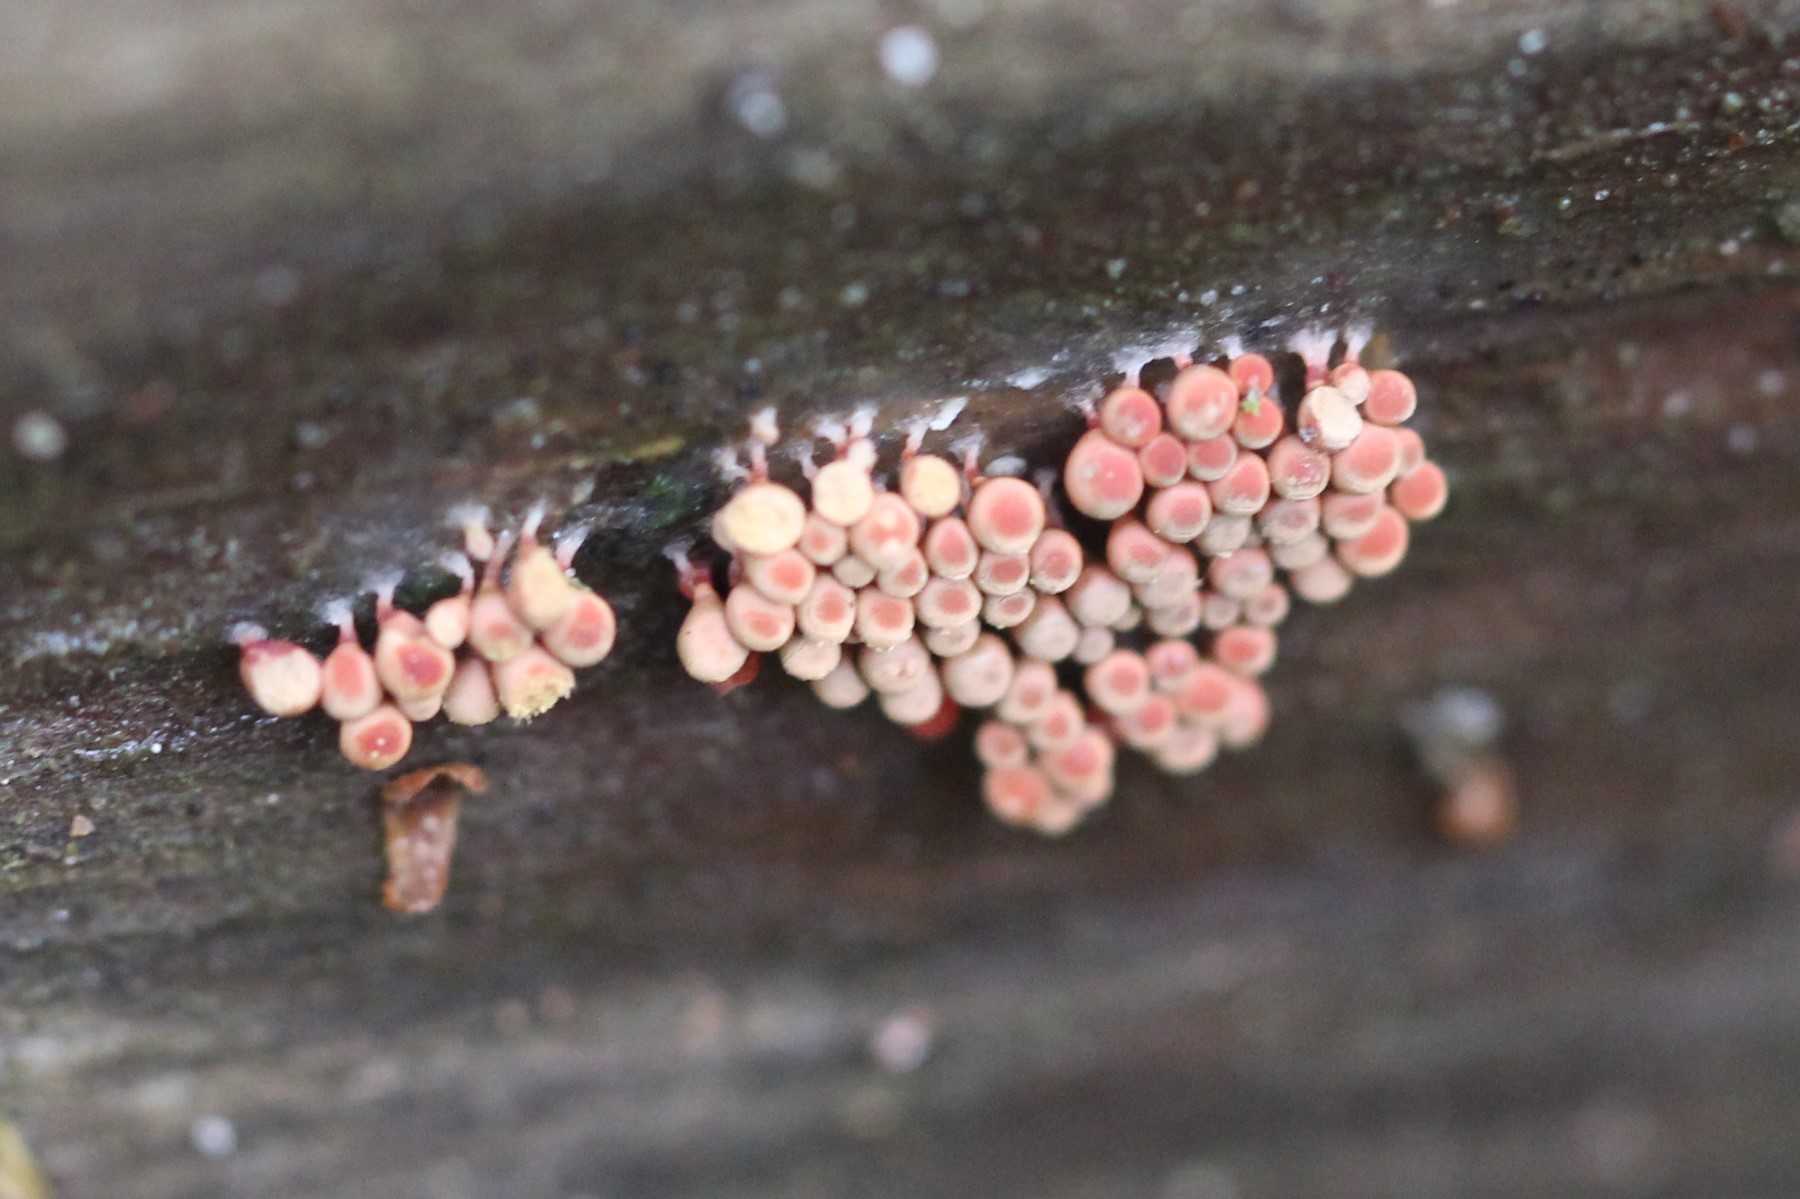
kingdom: Protozoa
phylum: Mycetozoa
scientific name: Mycetozoa
